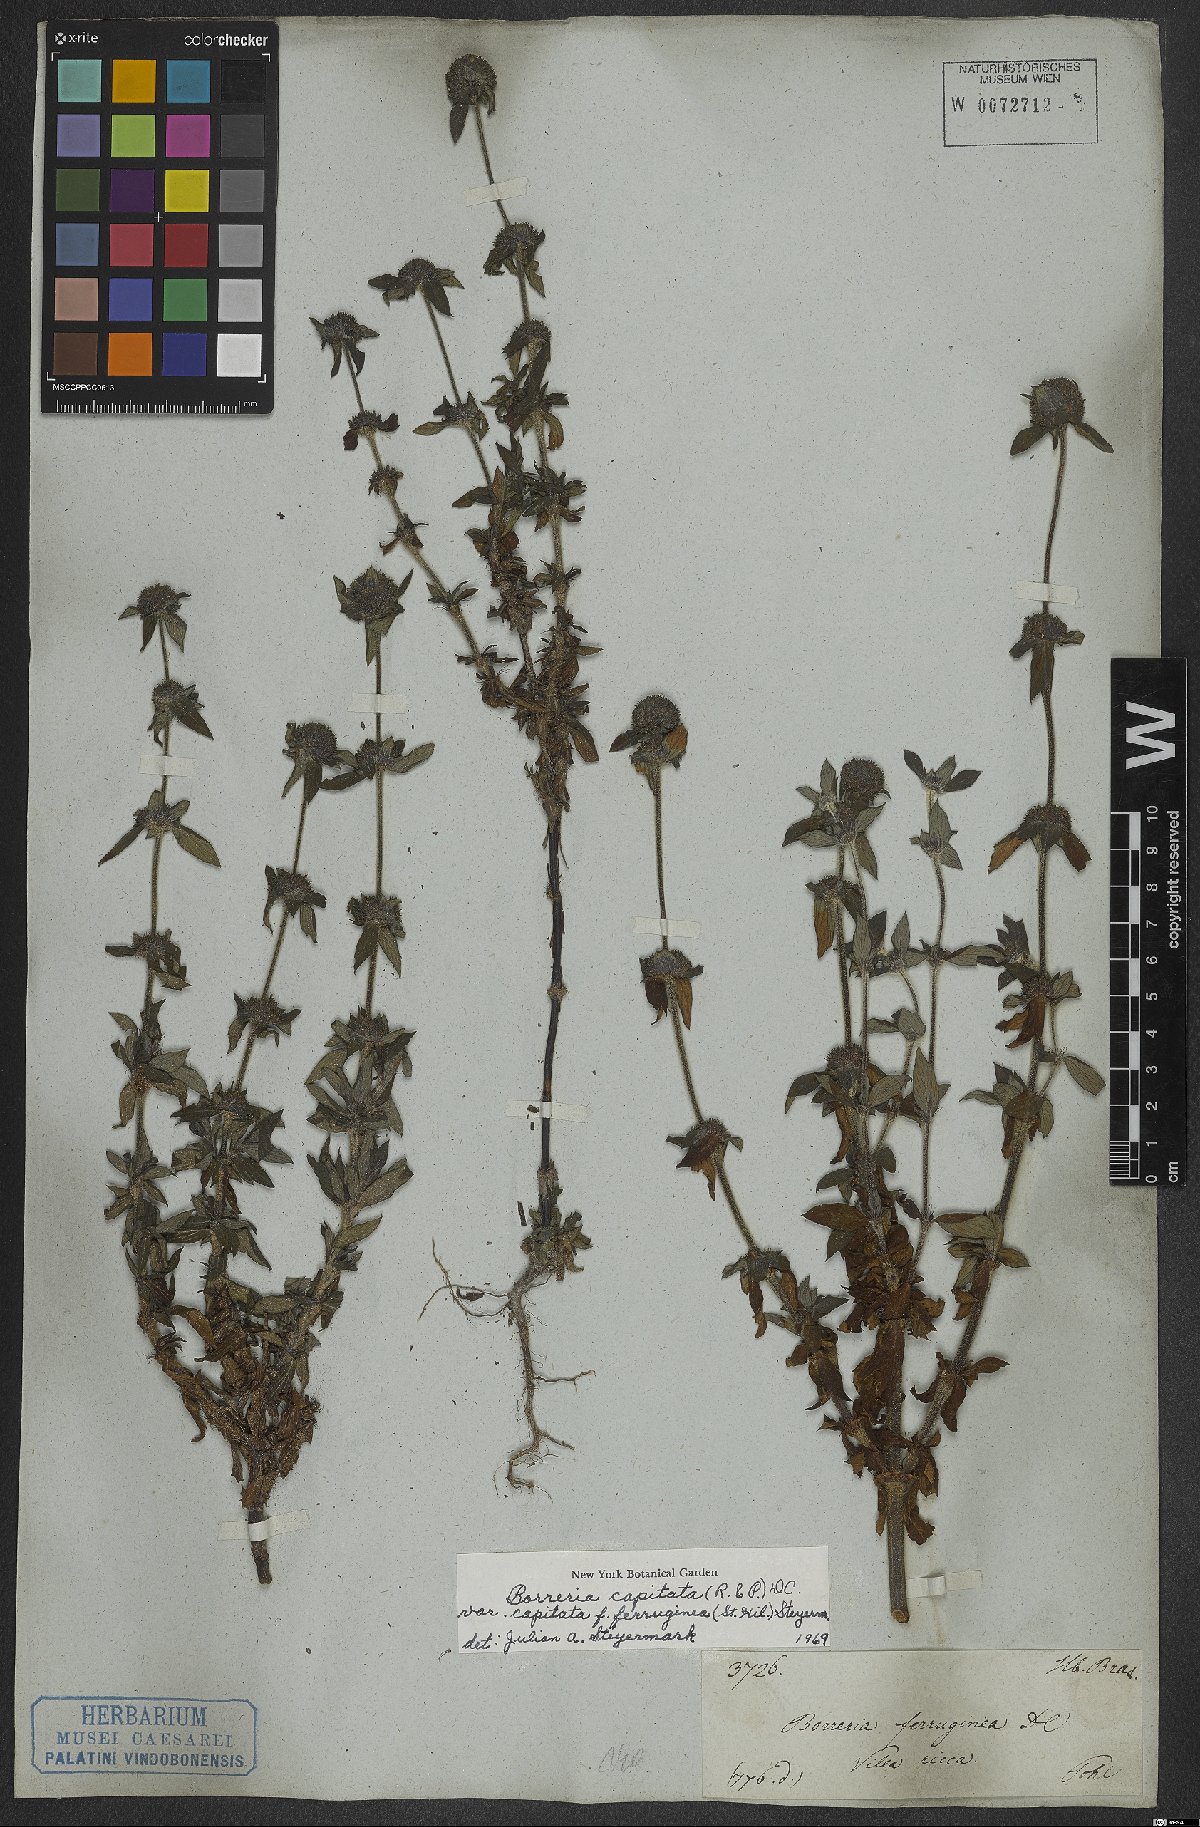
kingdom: Plantae
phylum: Tracheophyta
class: Magnoliopsida
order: Gentianales
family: Rubiaceae
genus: Spermacoce
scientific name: Spermacoce capitata
